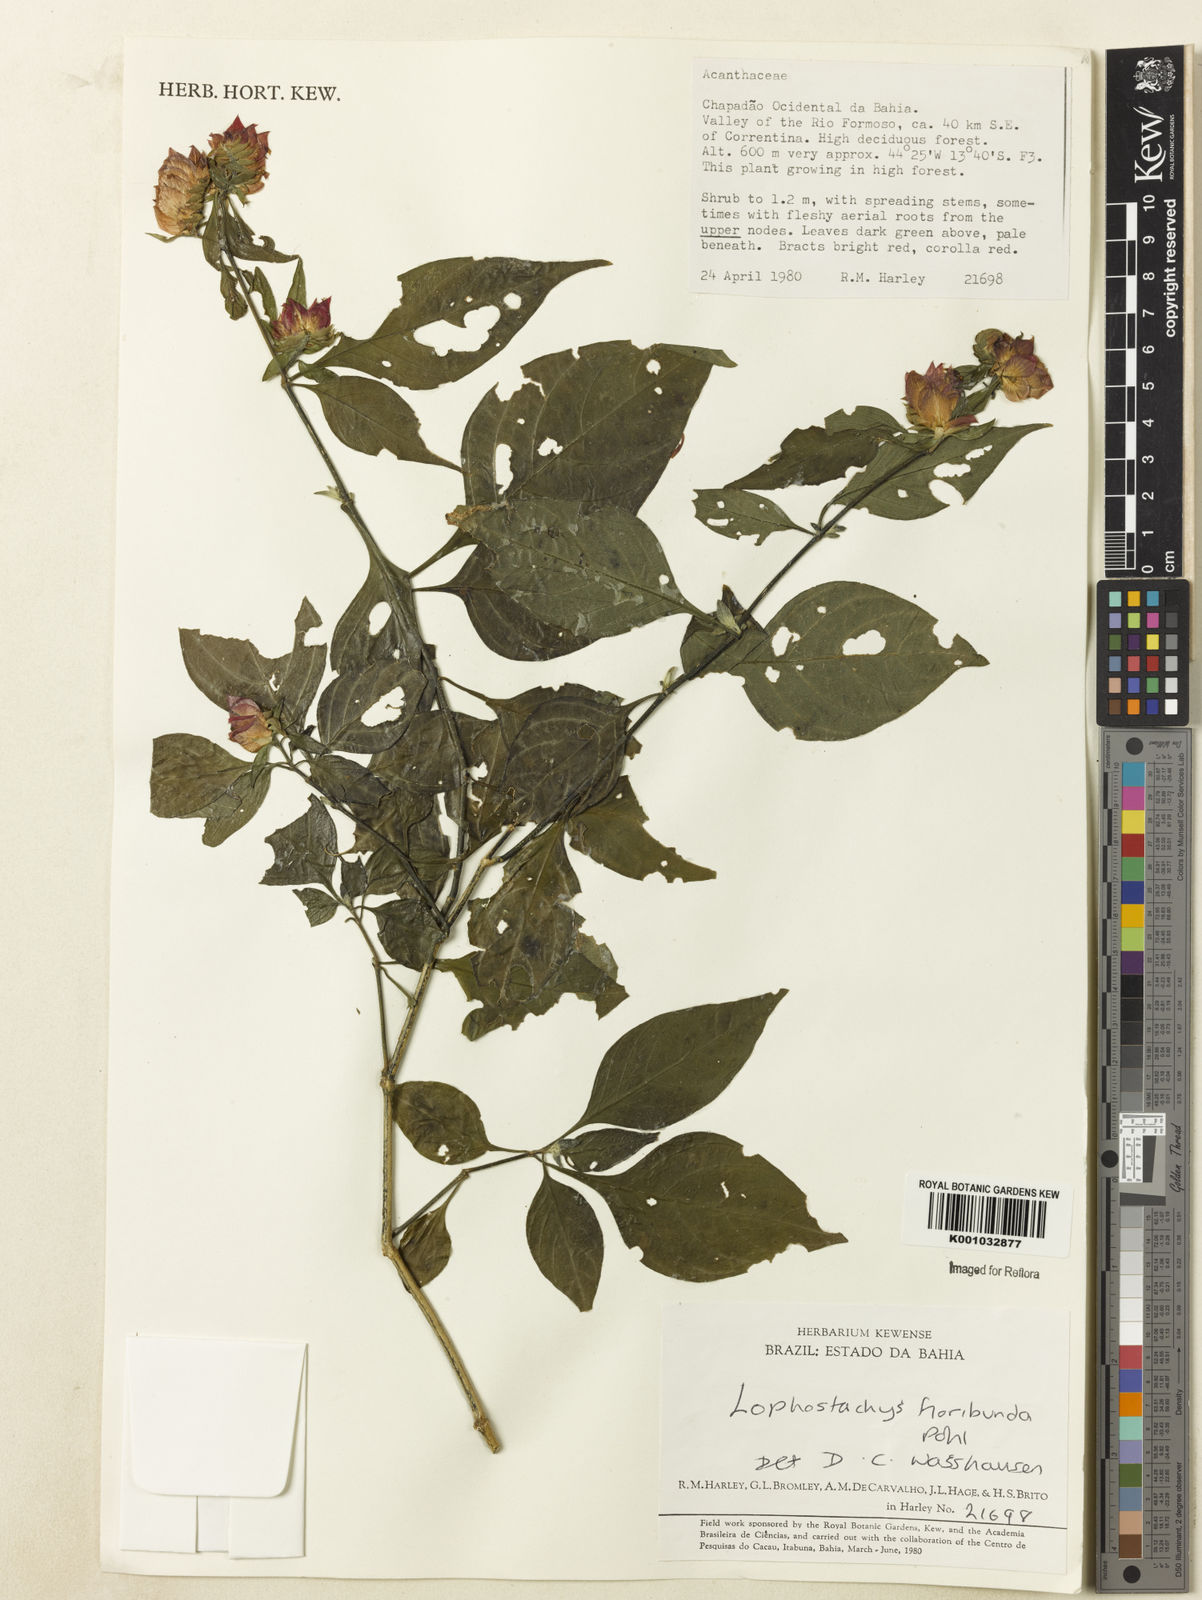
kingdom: Plantae
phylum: Tracheophyta
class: Magnoliopsida
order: Lamiales
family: Acanthaceae
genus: Lepidagathis
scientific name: Lepidagathis floribunda
